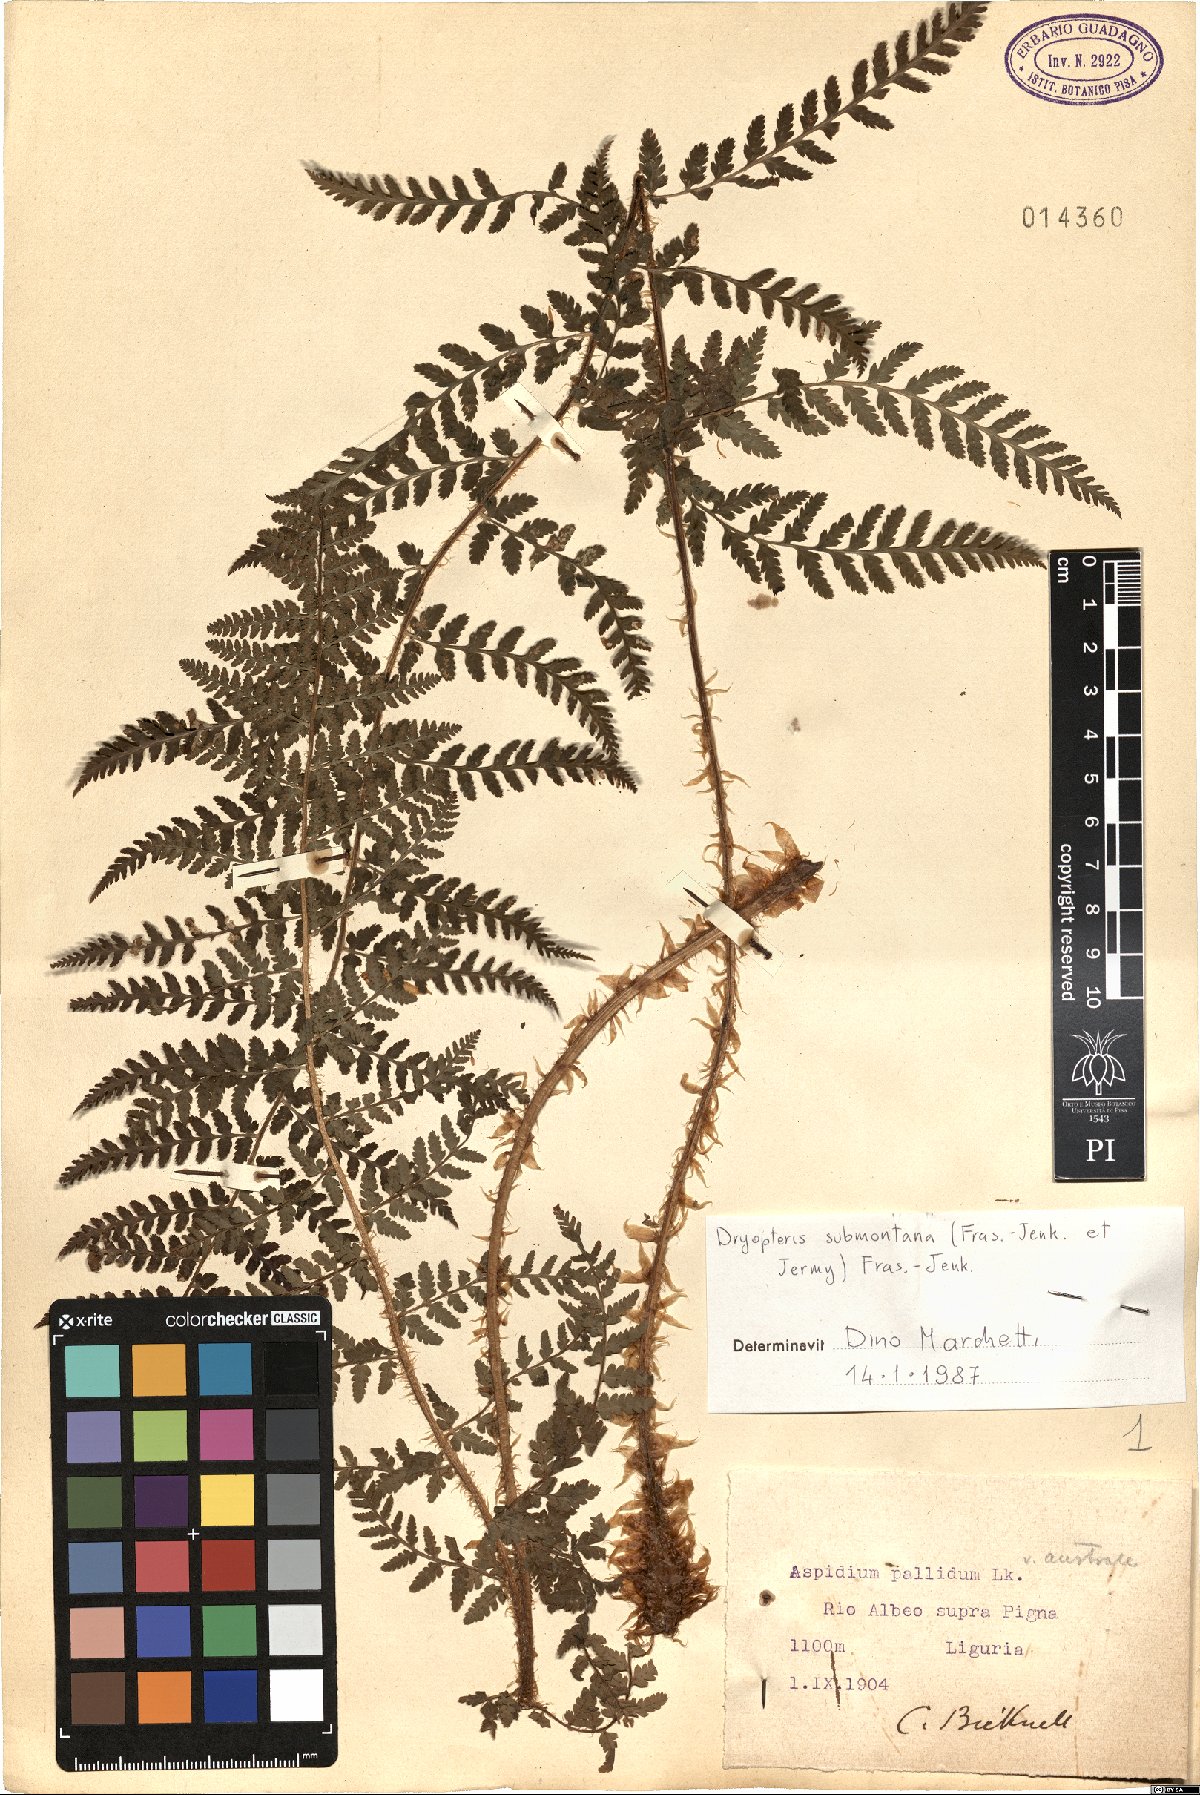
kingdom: Plantae
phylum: Tracheophyta
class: Polypodiopsida
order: Polypodiales
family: Dryopteridaceae
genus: Dryopteris
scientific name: Dryopteris mindshelkensis
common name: Limestone wood fern
